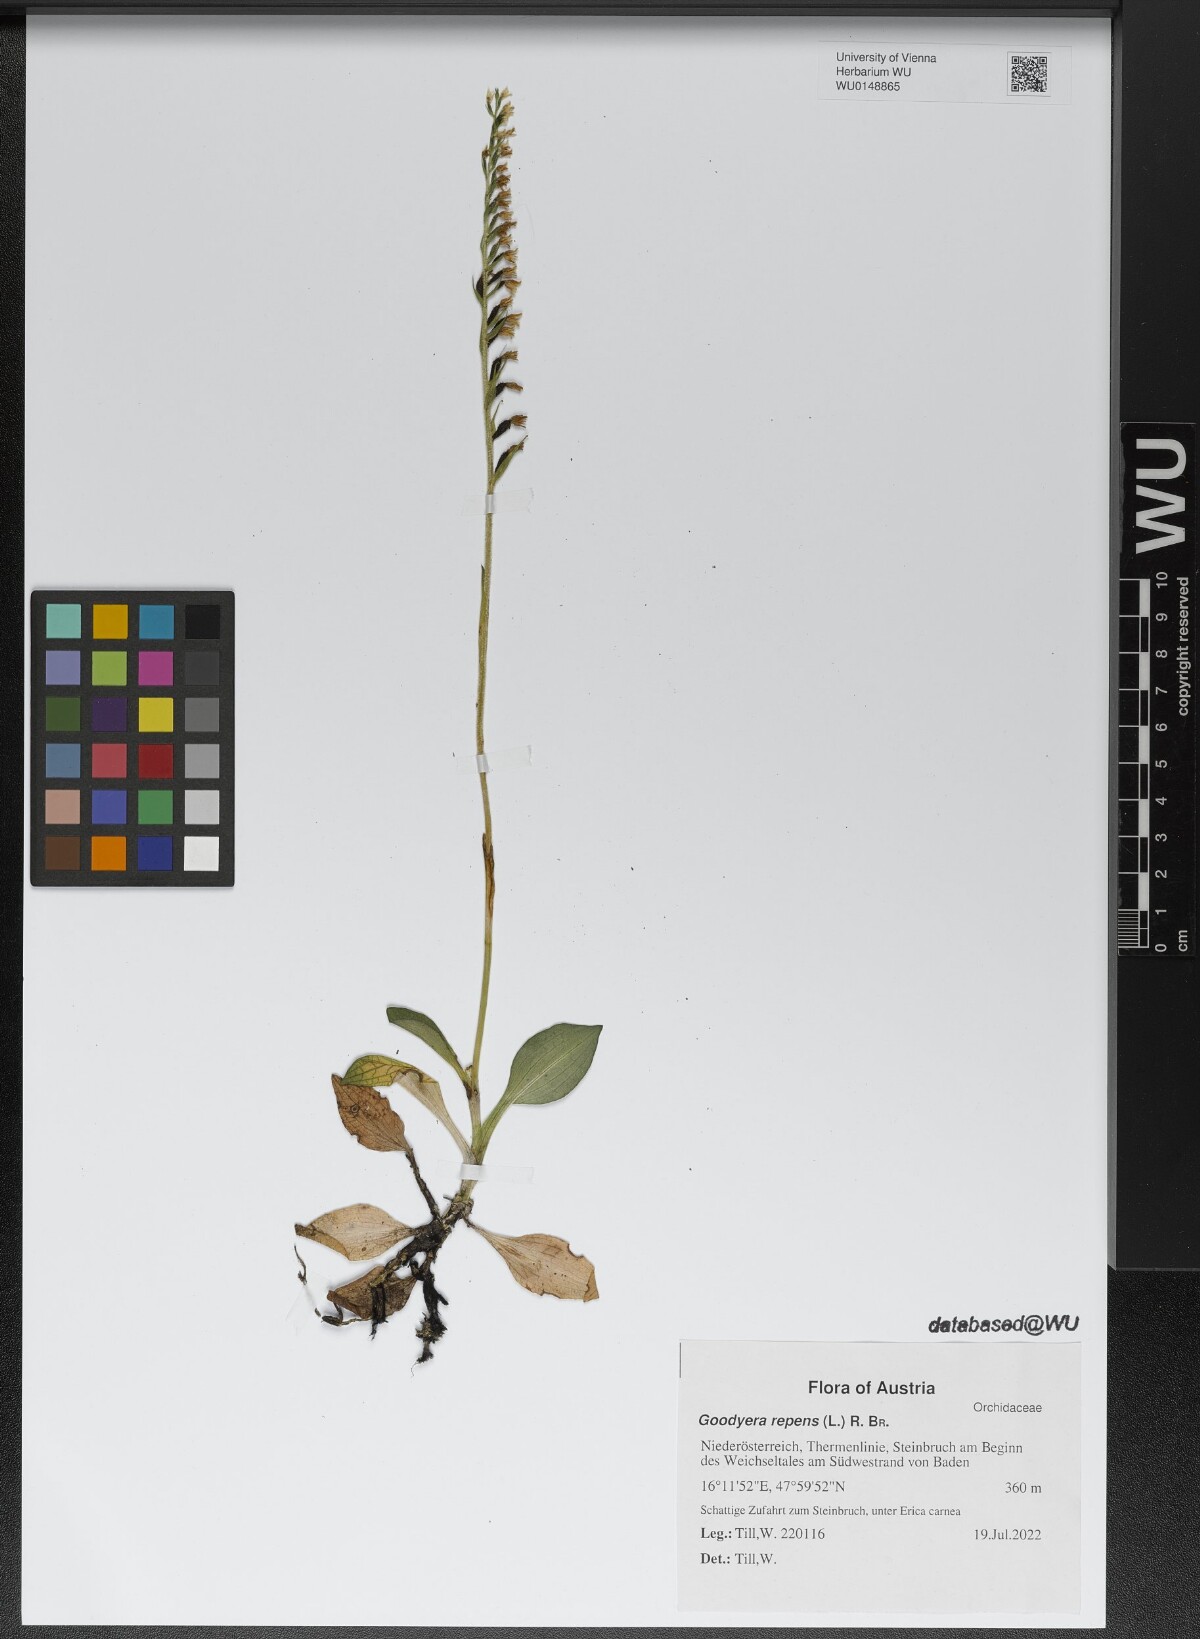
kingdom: Plantae
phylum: Tracheophyta
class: Liliopsida
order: Asparagales
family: Orchidaceae
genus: Goodyera
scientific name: Goodyera repens
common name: Creeping lady's-tresses
